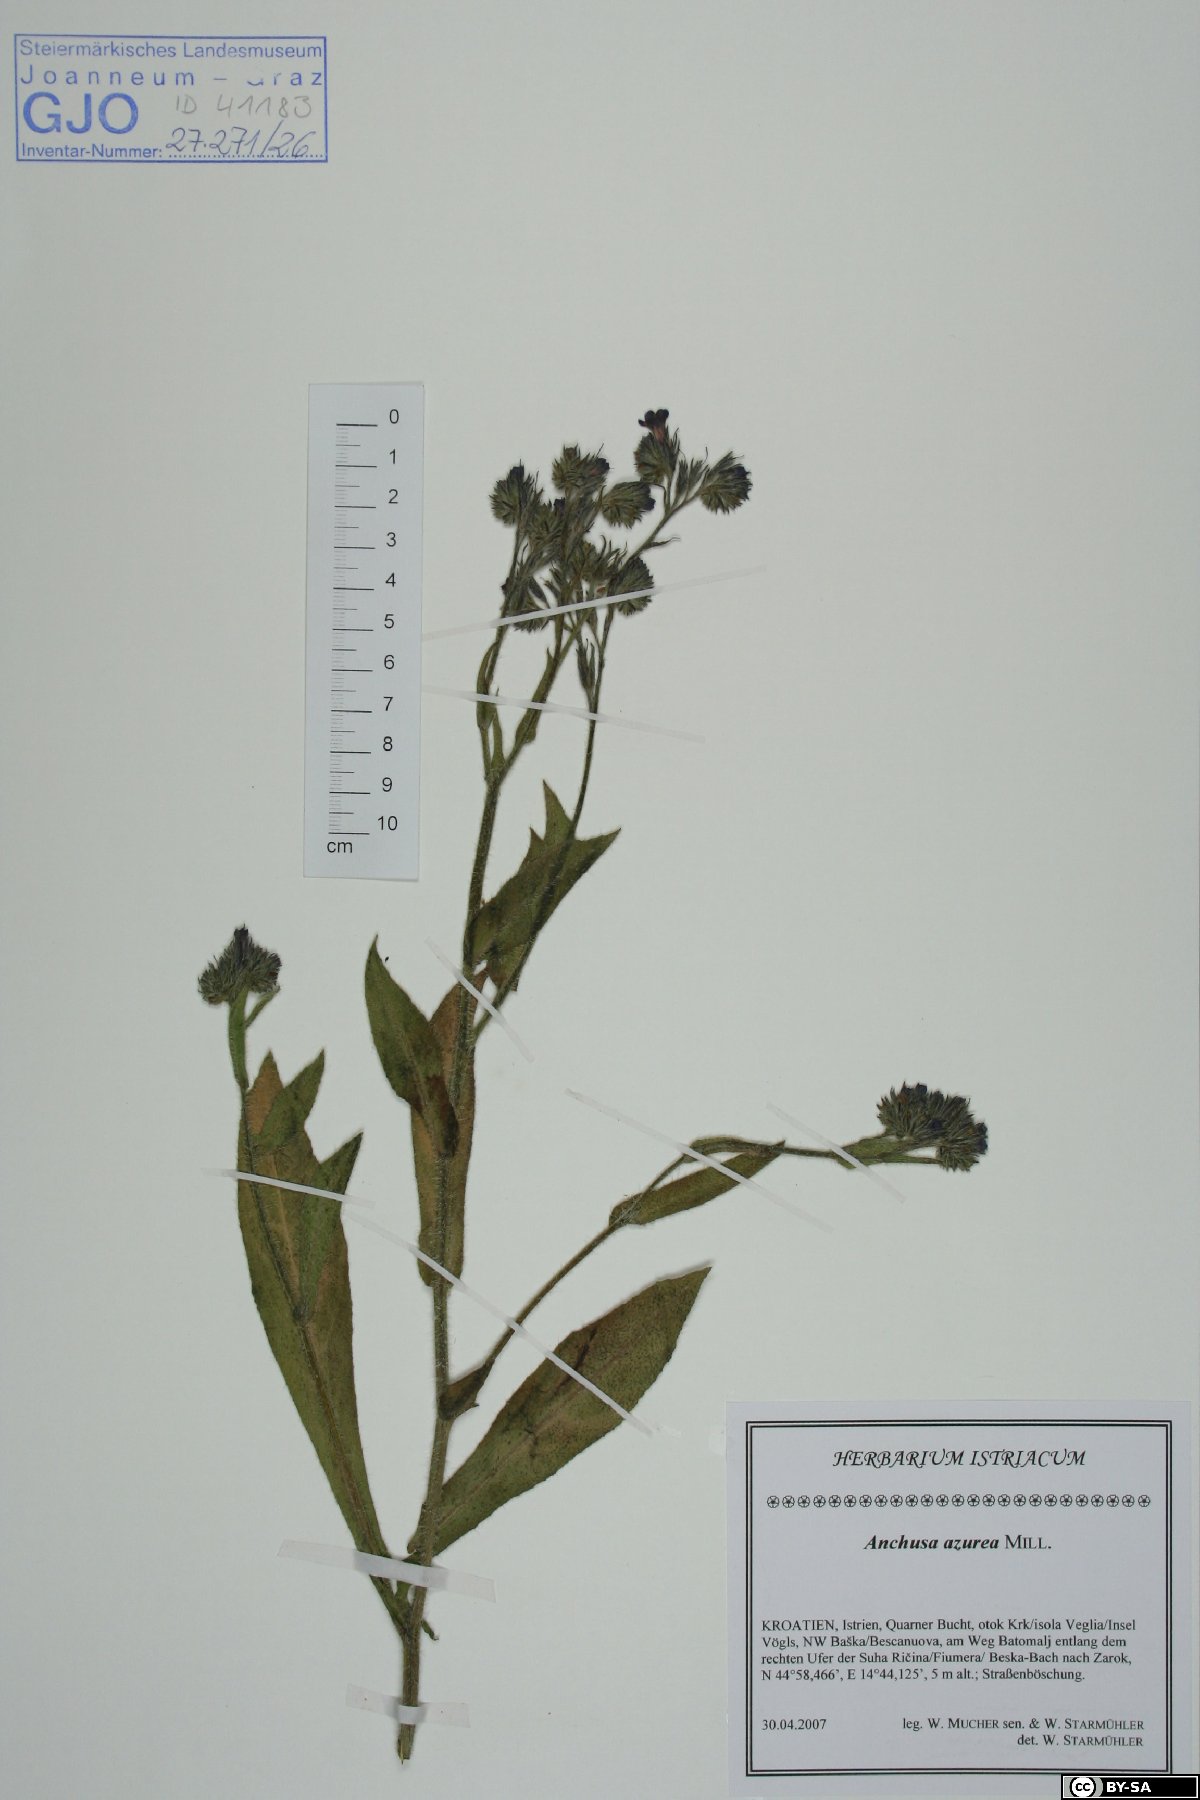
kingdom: Plantae
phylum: Tracheophyta
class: Magnoliopsida
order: Boraginales
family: Boraginaceae
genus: Anchusa
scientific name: Anchusa azurea
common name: Garden anchusa
